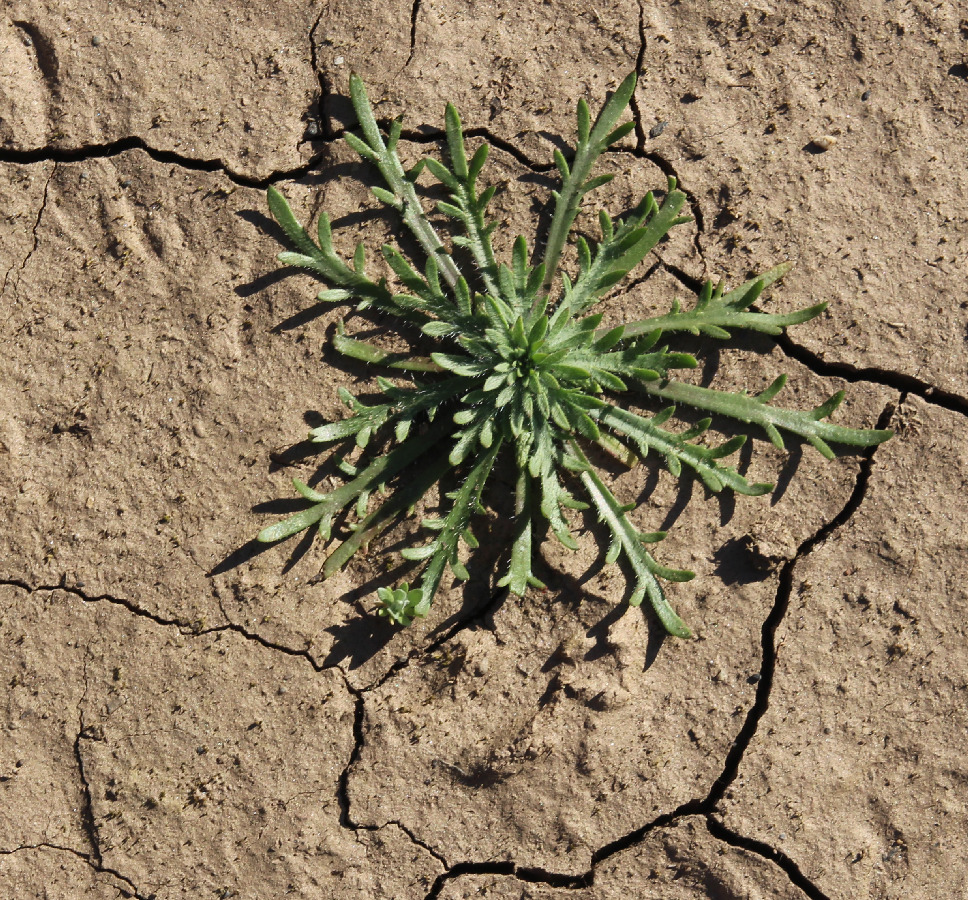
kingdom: Plantae
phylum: Tracheophyta
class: Magnoliopsida
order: Lamiales
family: Plantaginaceae
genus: Plantago
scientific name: Plantago coronopus
